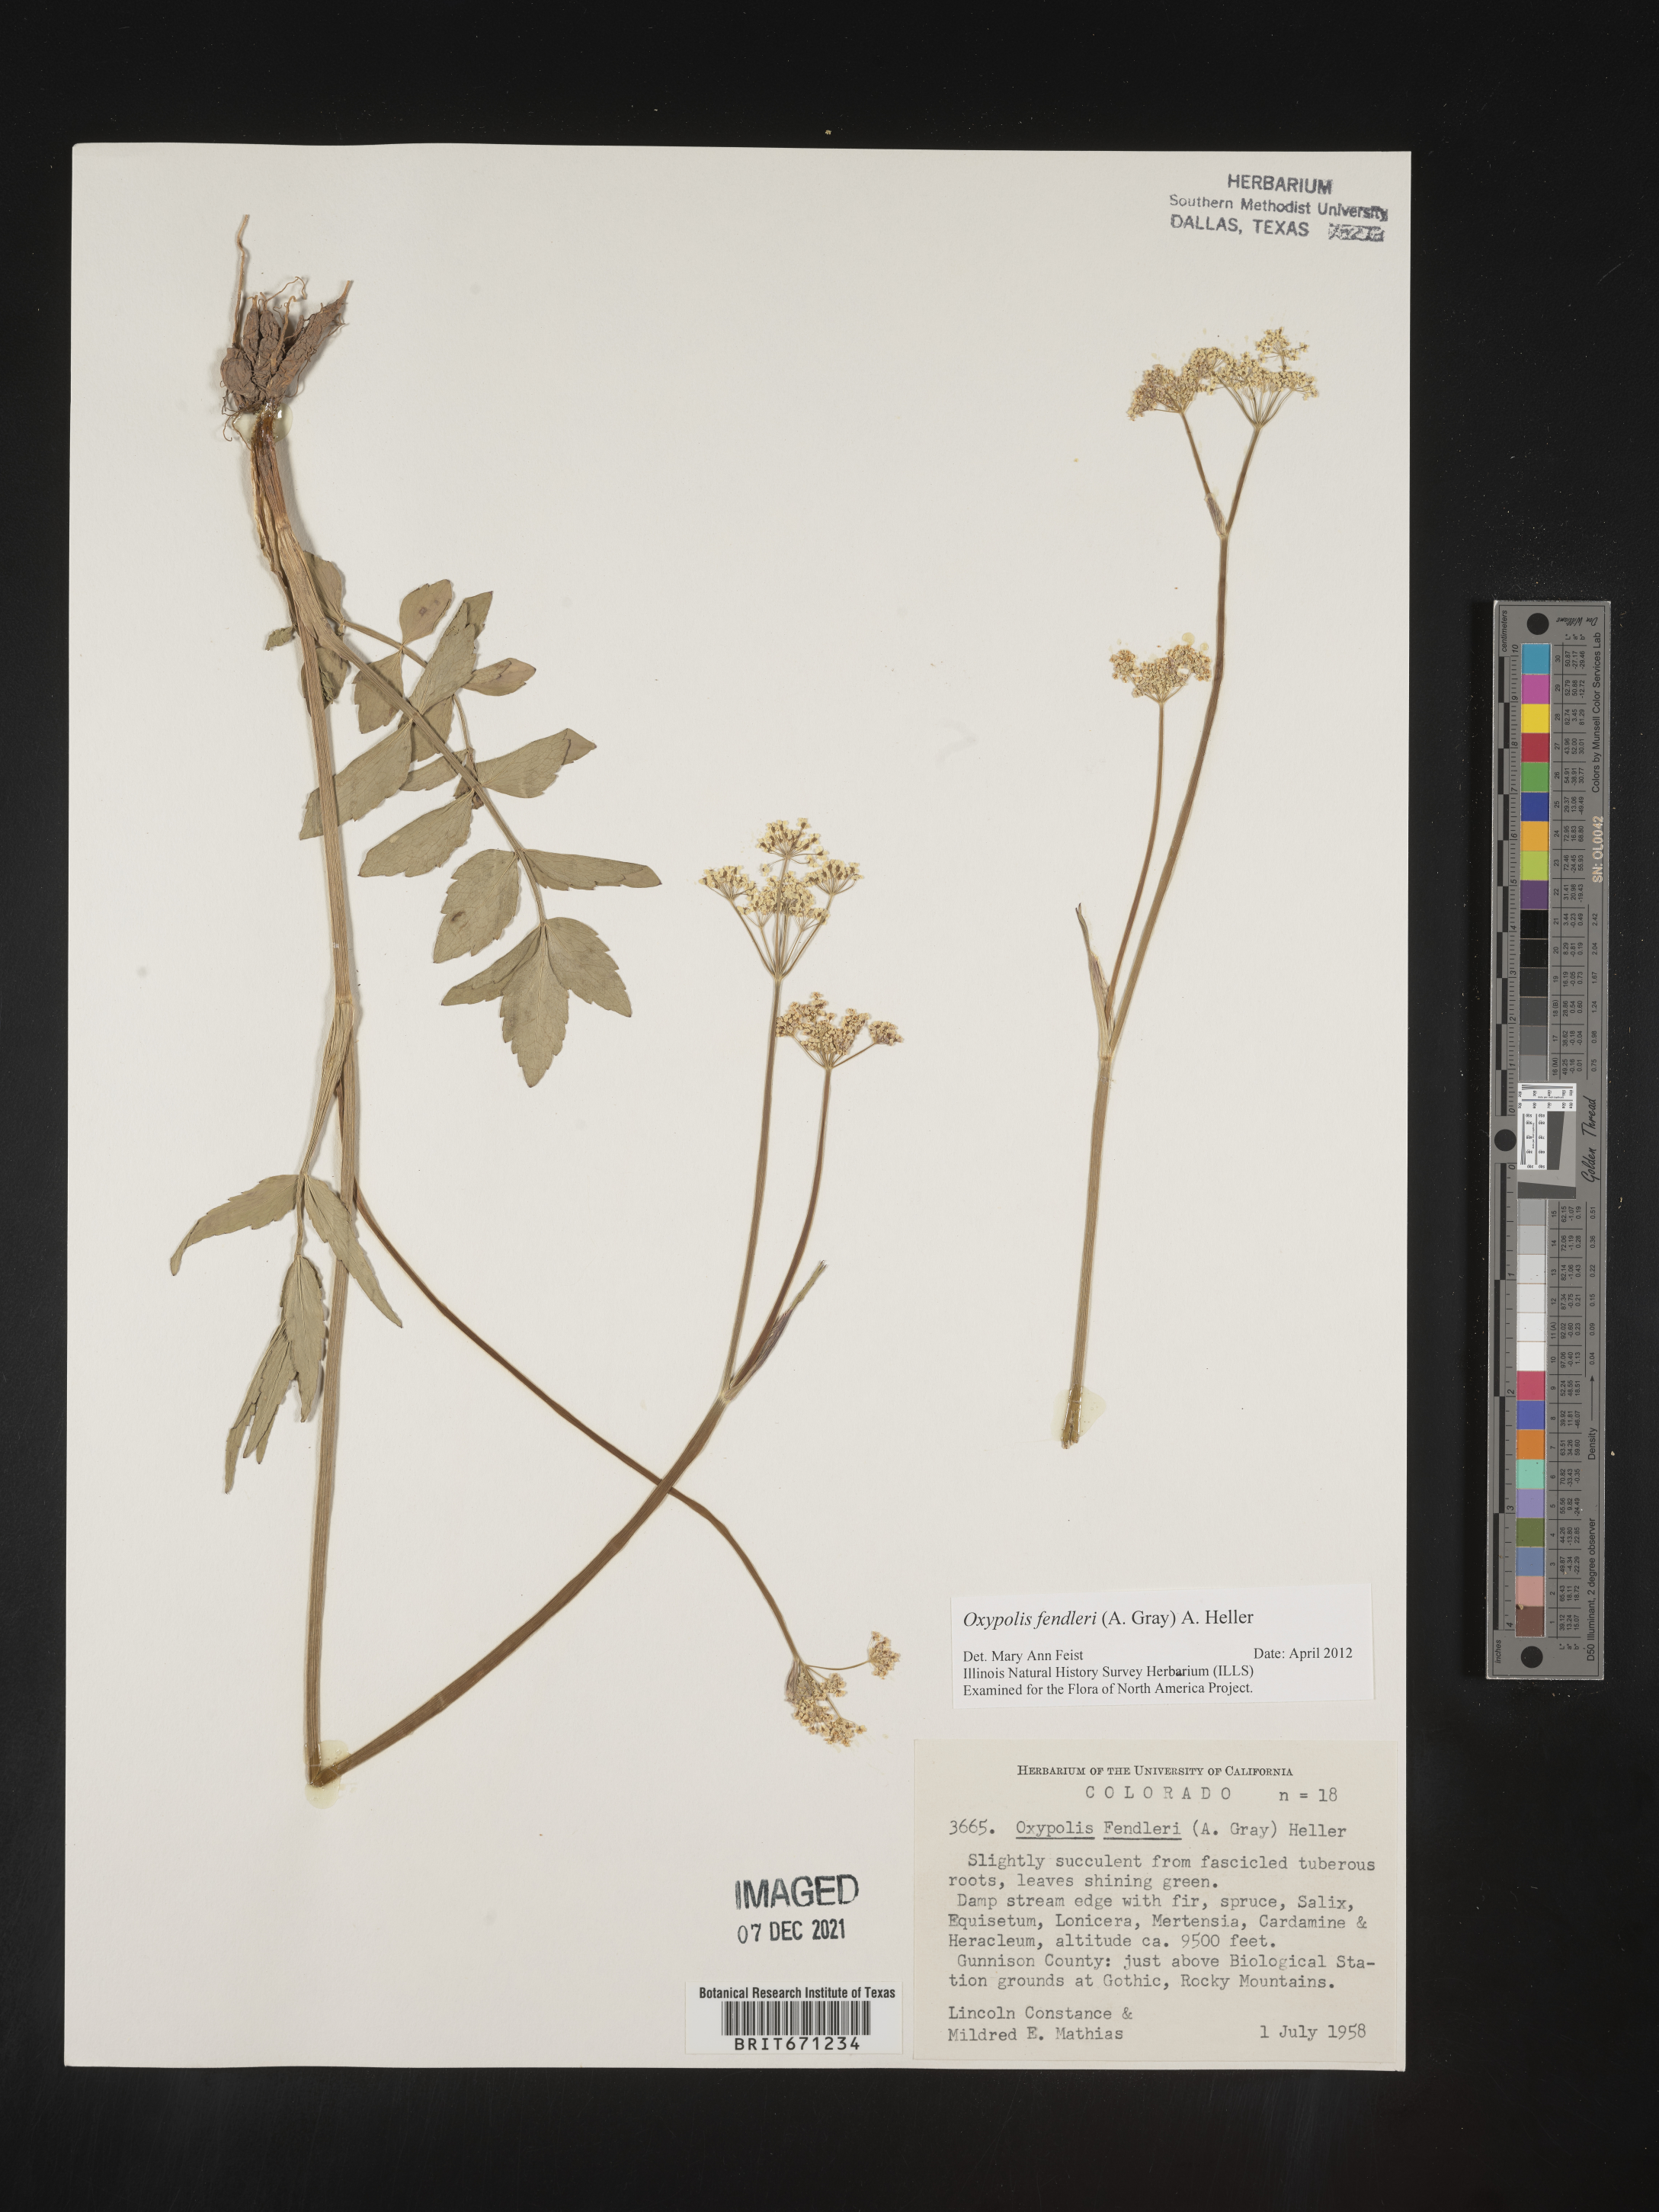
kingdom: Plantae
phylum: Tracheophyta
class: Magnoliopsida
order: Apiales
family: Apiaceae
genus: Oxypolis
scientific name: Oxypolis fendleri
